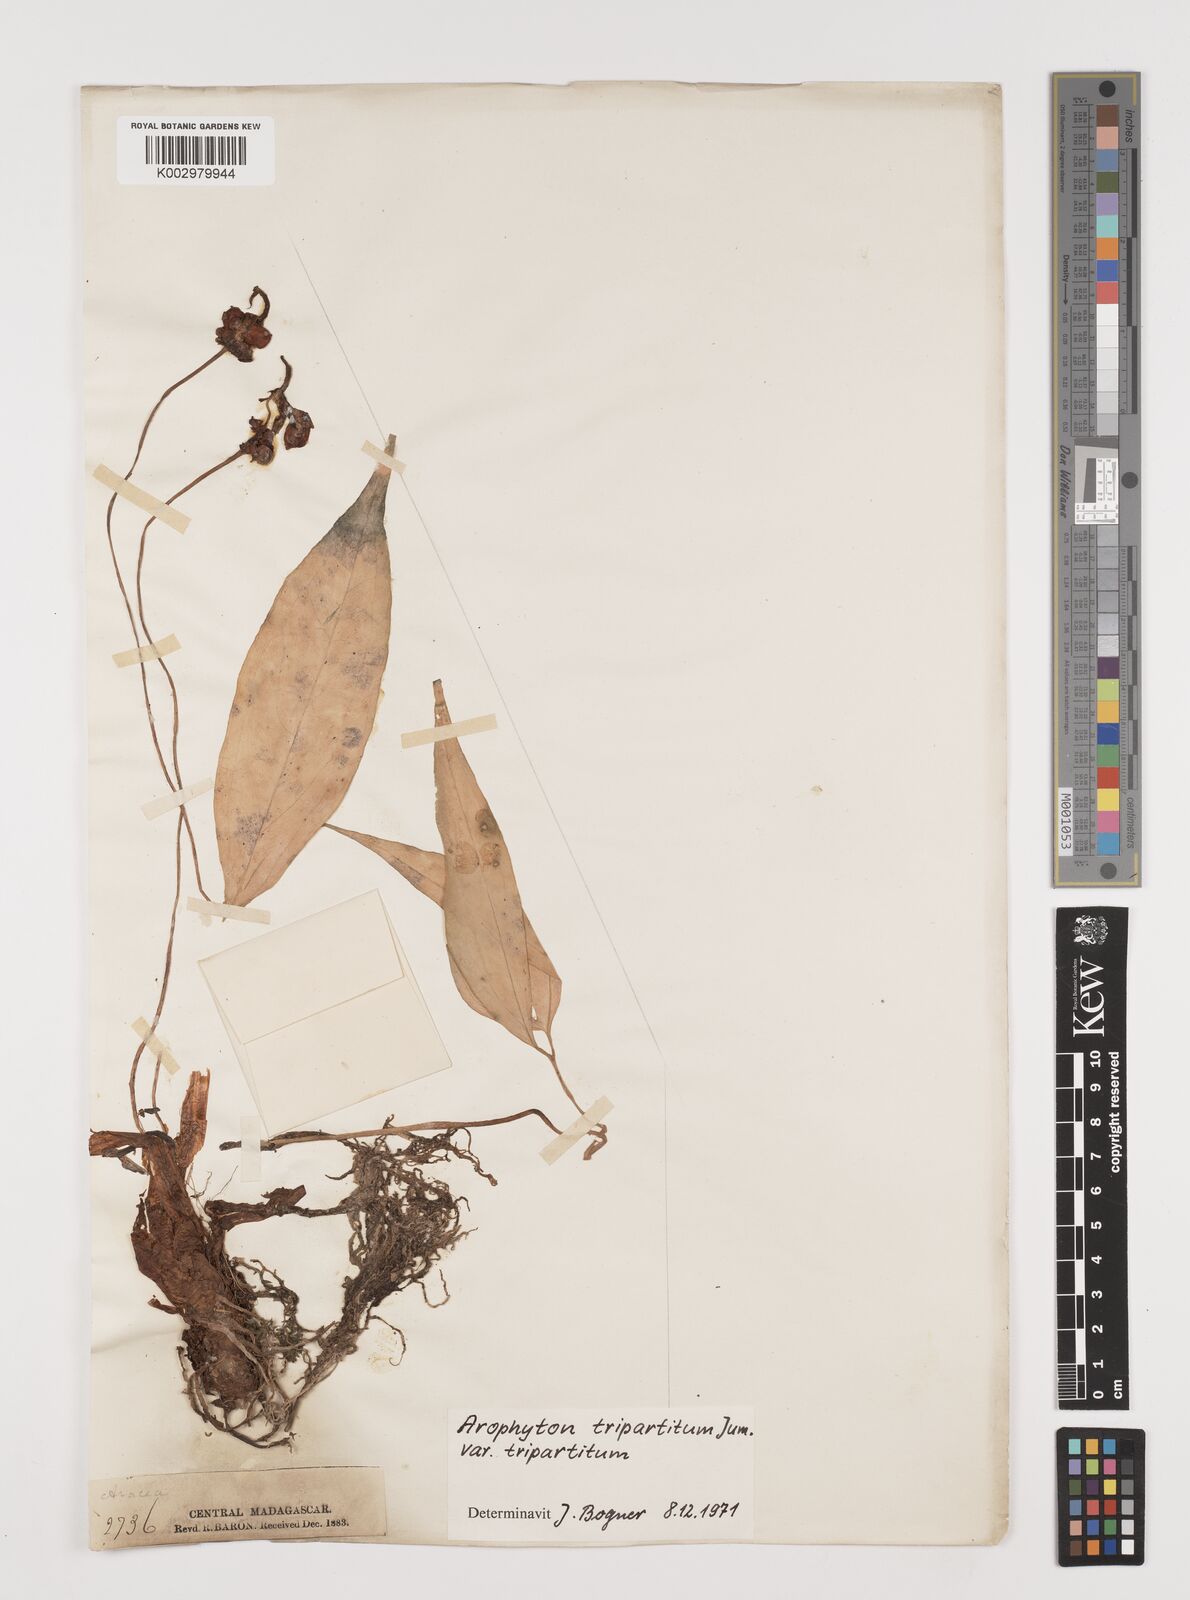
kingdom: Plantae
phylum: Tracheophyta
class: Liliopsida
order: Alismatales
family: Araceae
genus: Arophyton
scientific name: Arophyton tripartitum
